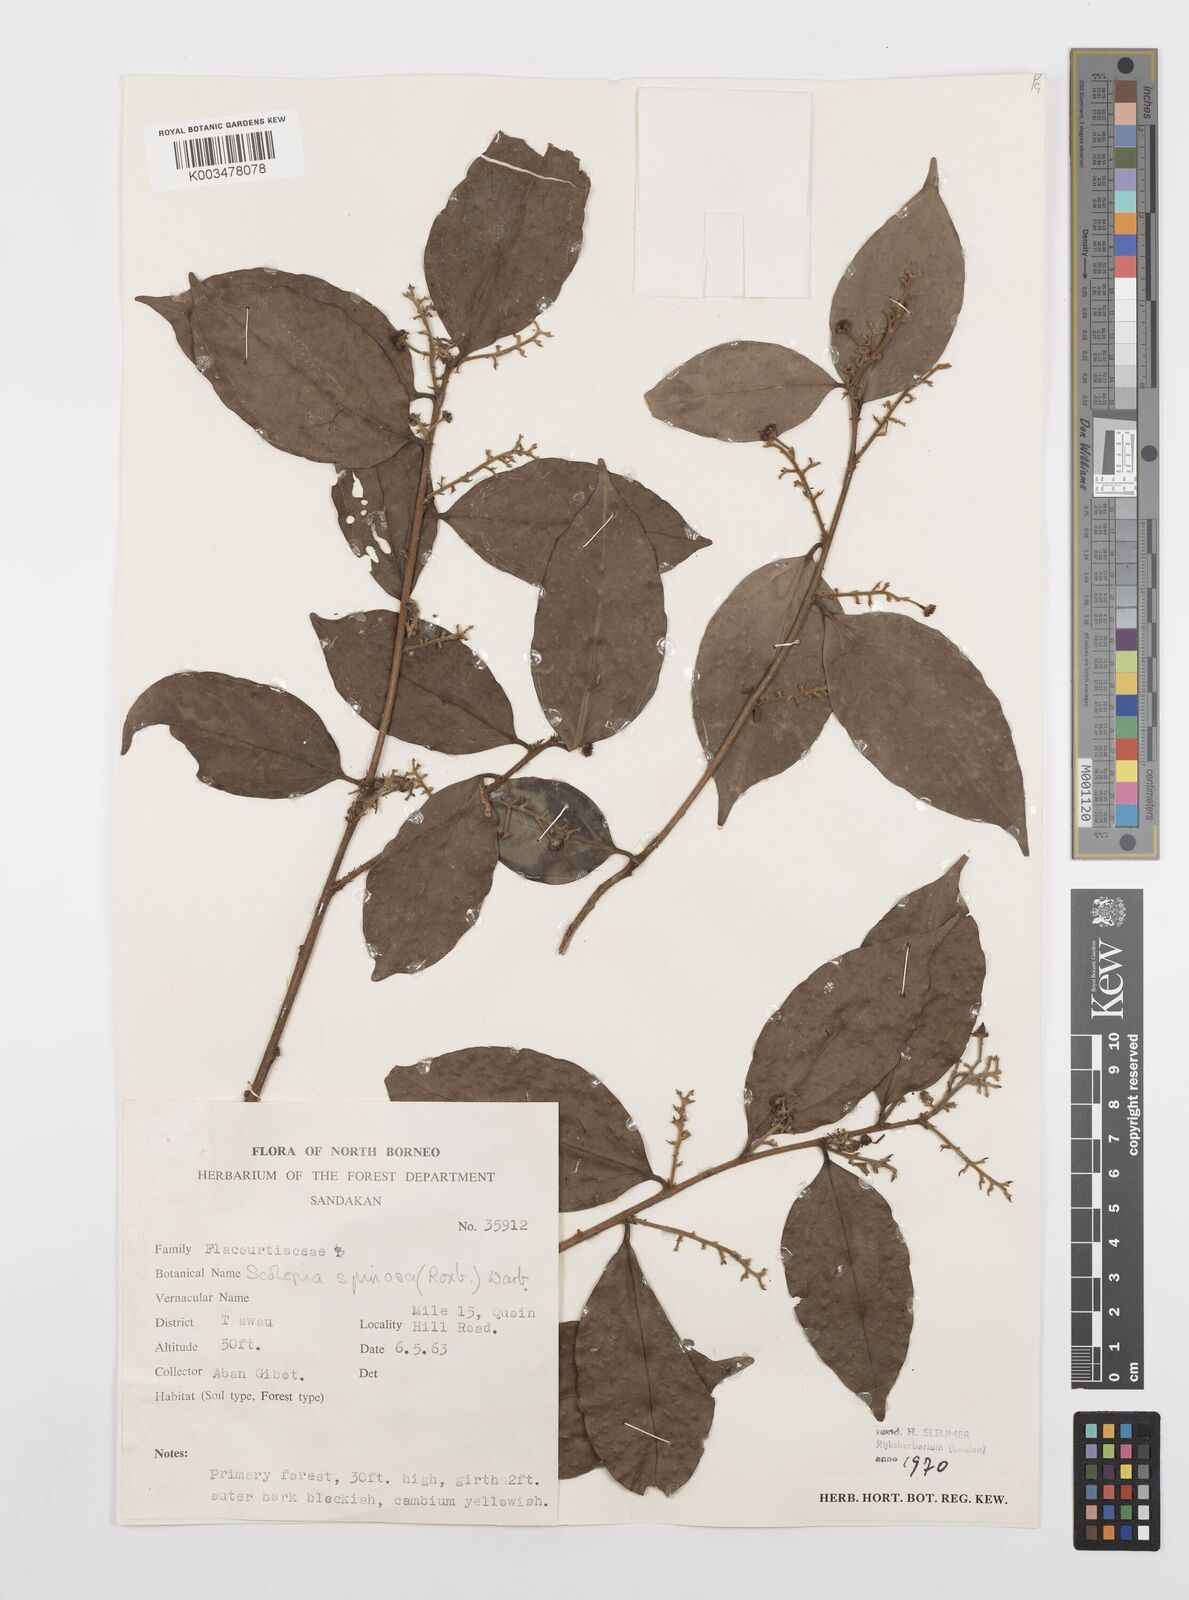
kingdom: Plantae
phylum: Tracheophyta
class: Magnoliopsida
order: Malpighiales
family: Salicaceae
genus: Scolopia
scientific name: Scolopia spinosa
